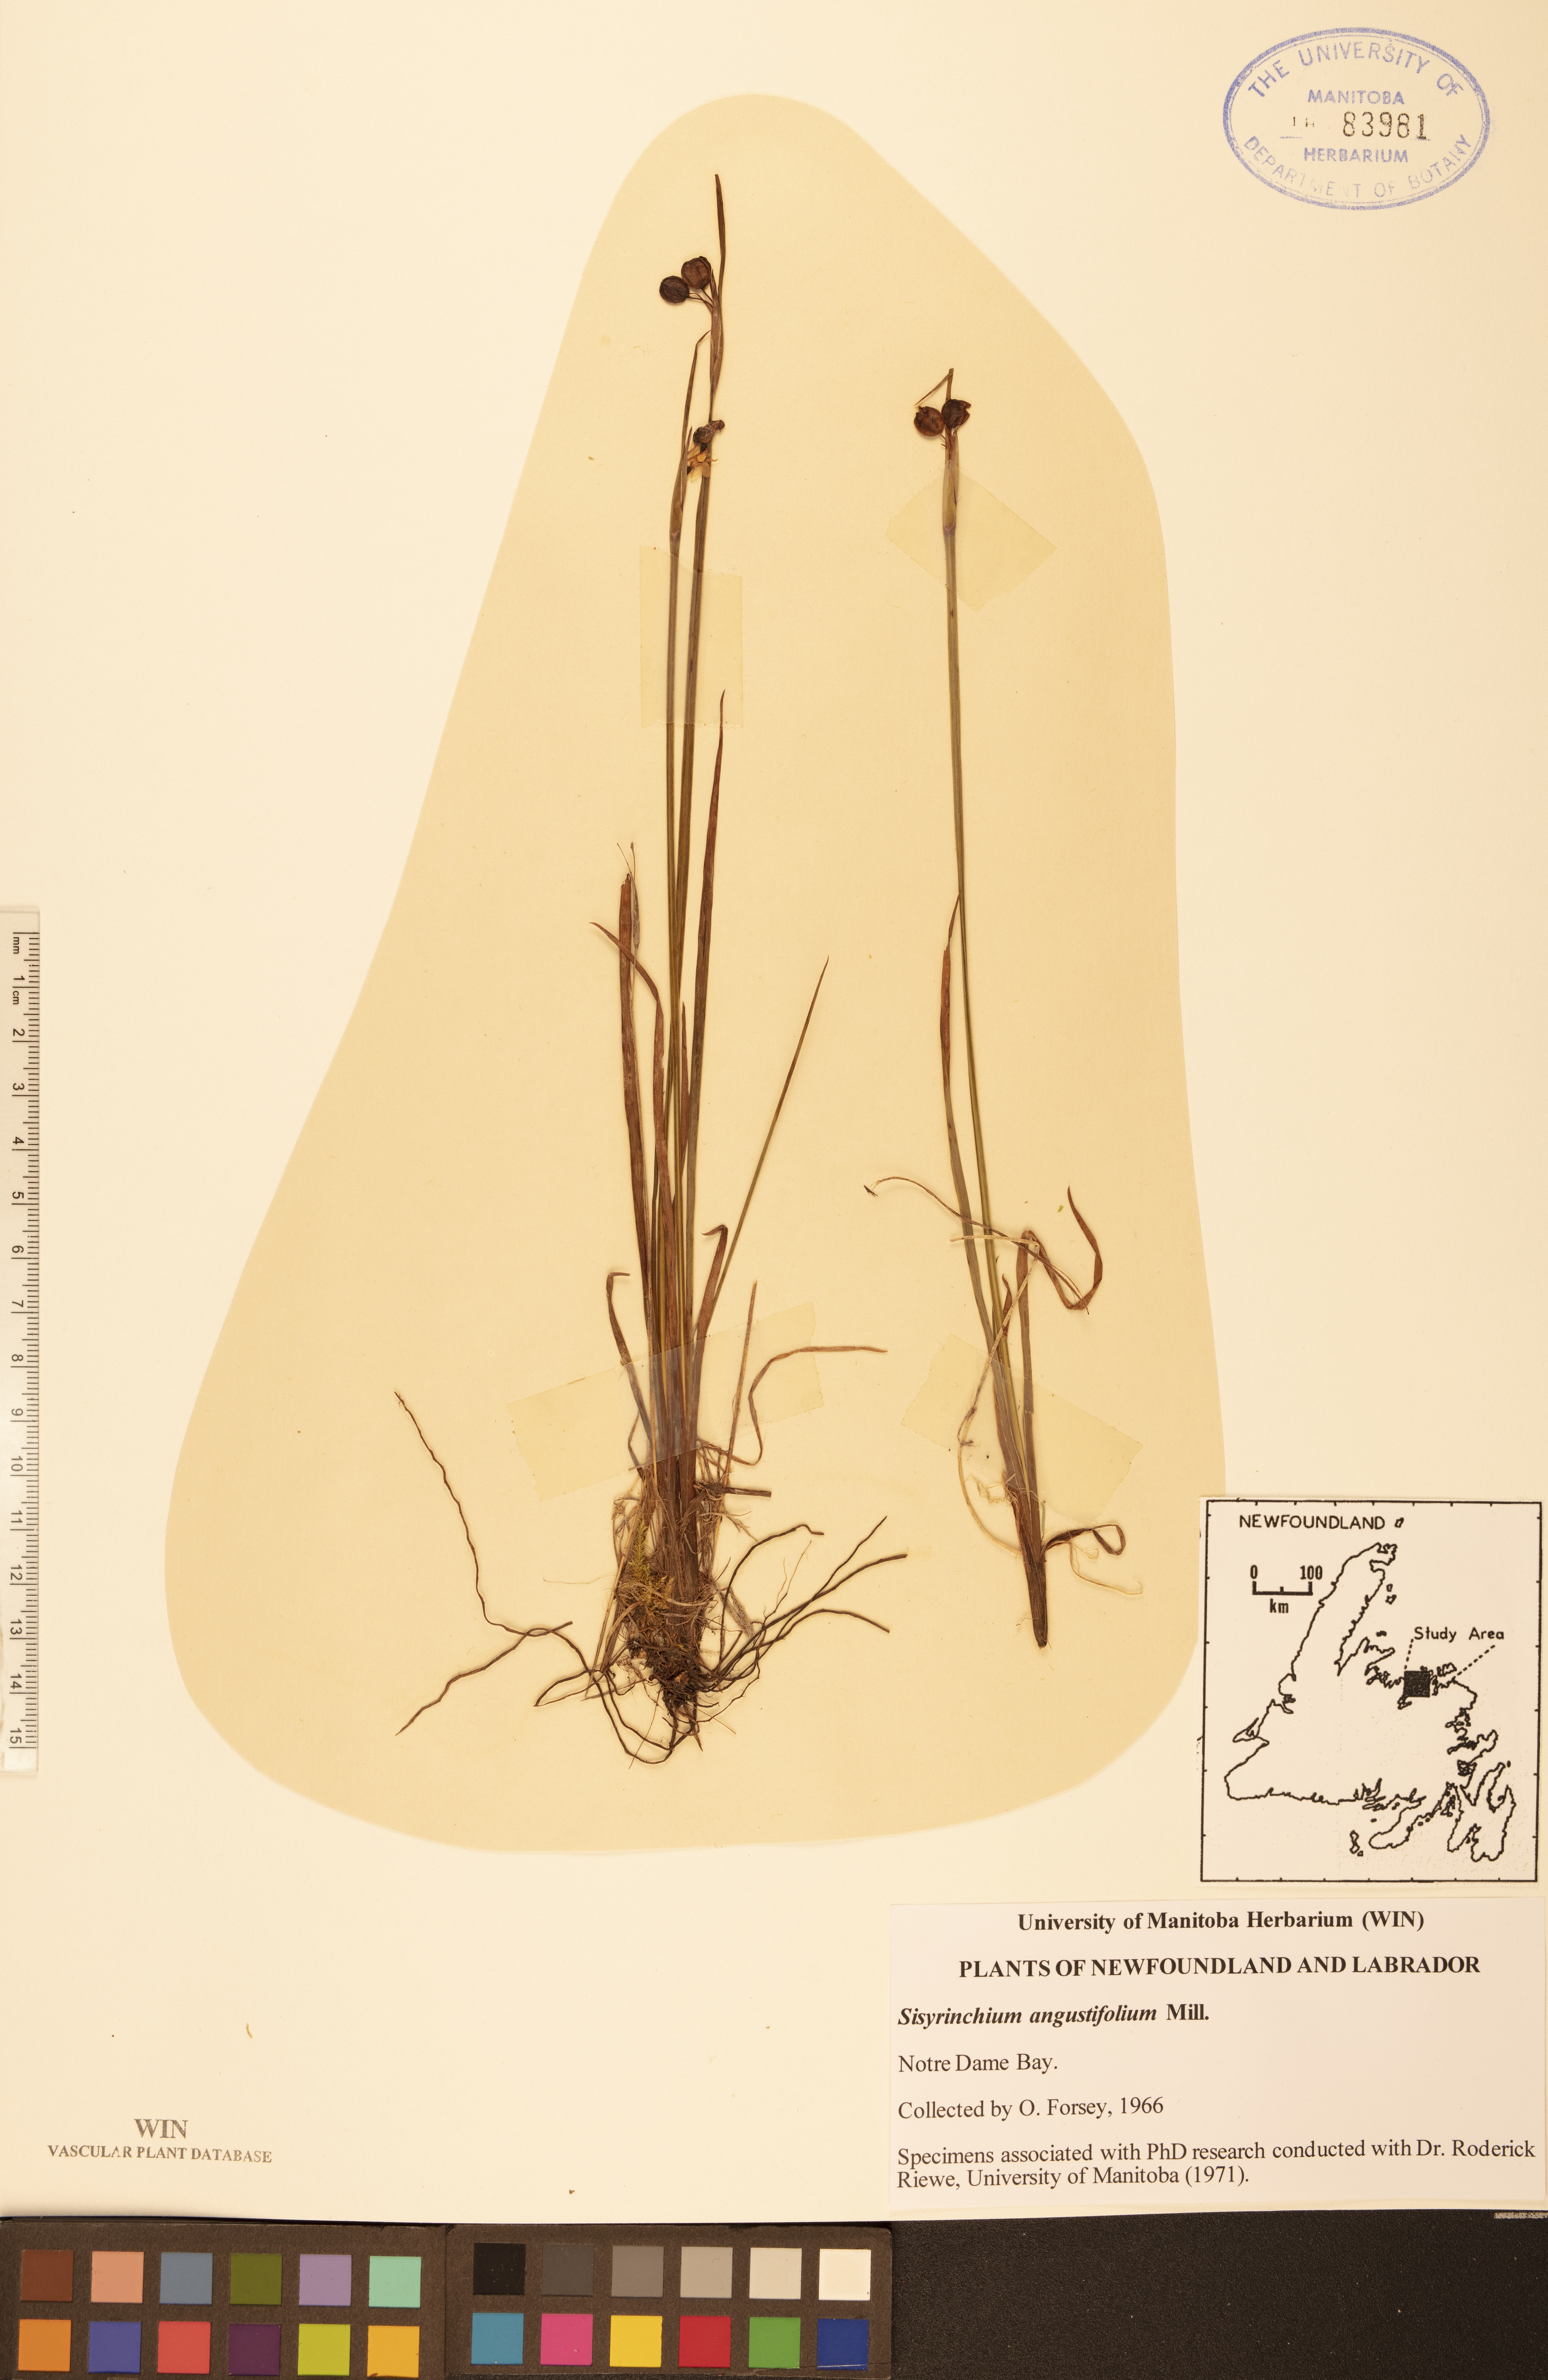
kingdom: Plantae
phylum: Tracheophyta
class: Liliopsida
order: Asparagales
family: Iridaceae
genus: Sisyrinchium
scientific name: Sisyrinchium angustifolium
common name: Narrow-leaf blue-eyed-grass
